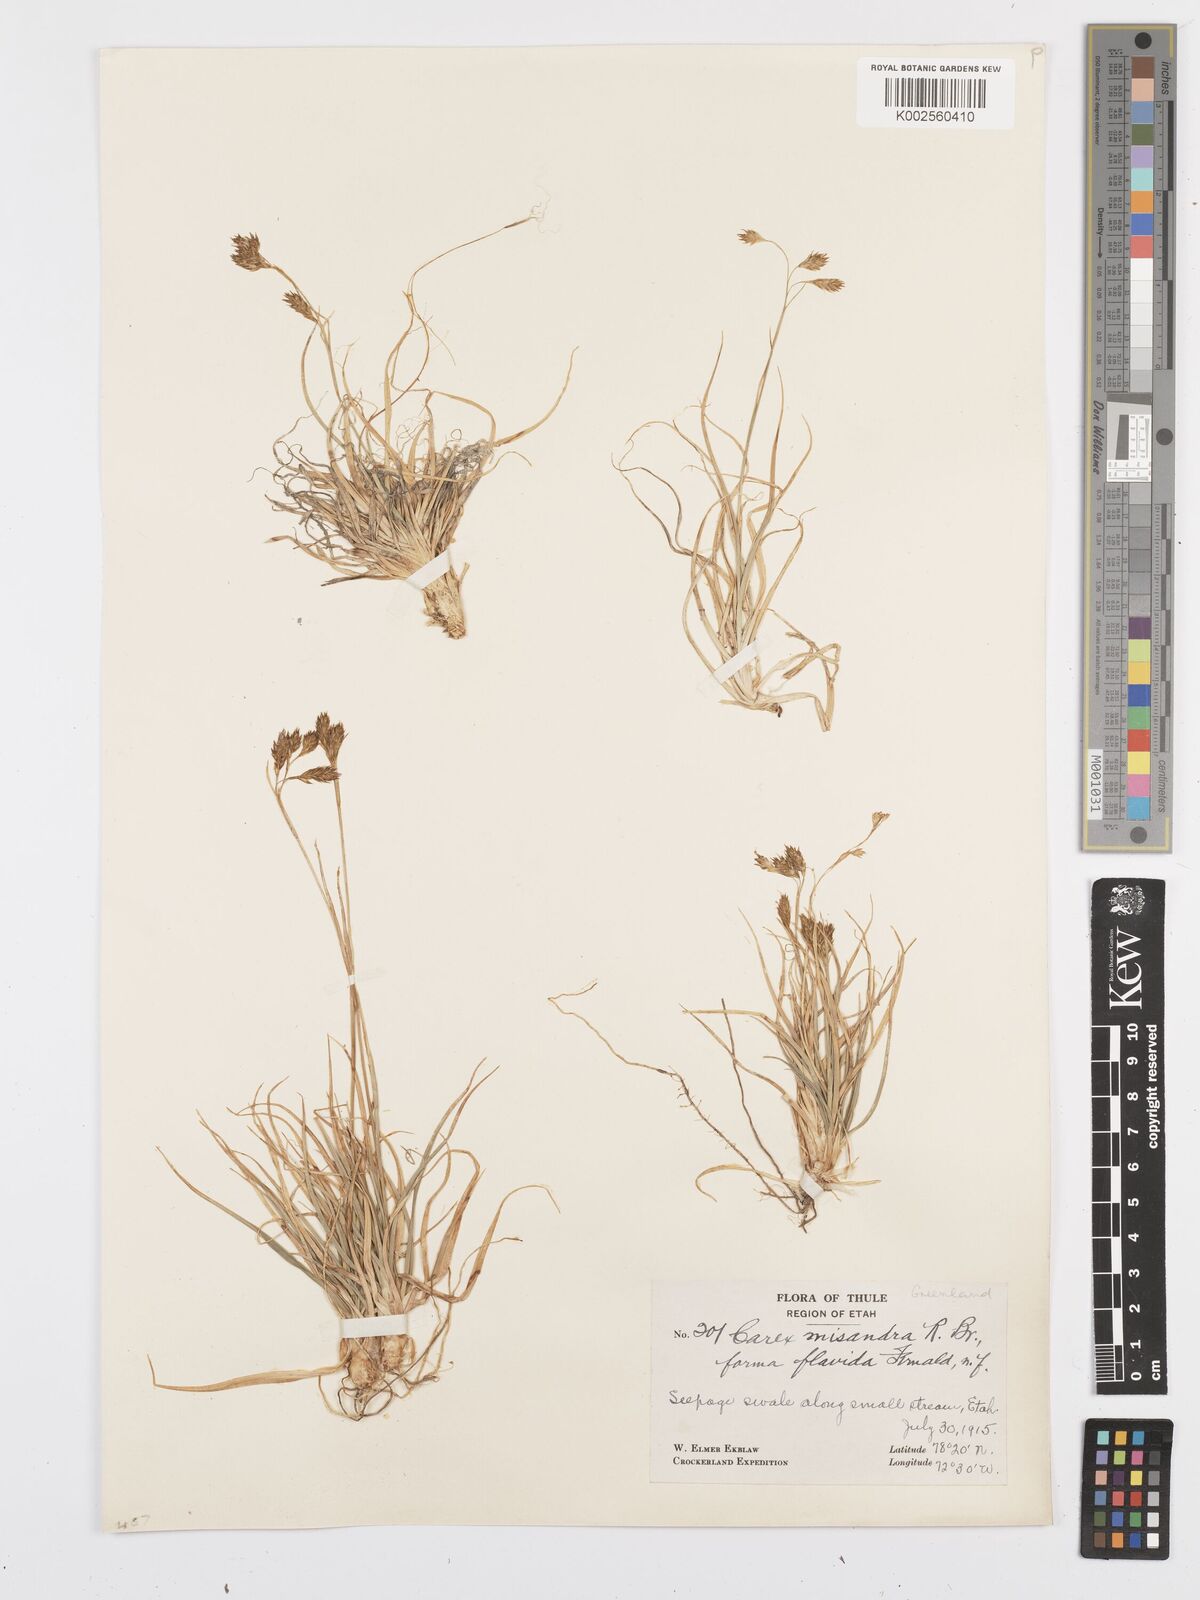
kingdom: Plantae
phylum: Tracheophyta
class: Liliopsida
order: Poales
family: Cyperaceae
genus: Carex
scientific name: Carex fuliginosa
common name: Few-flowered sedge
